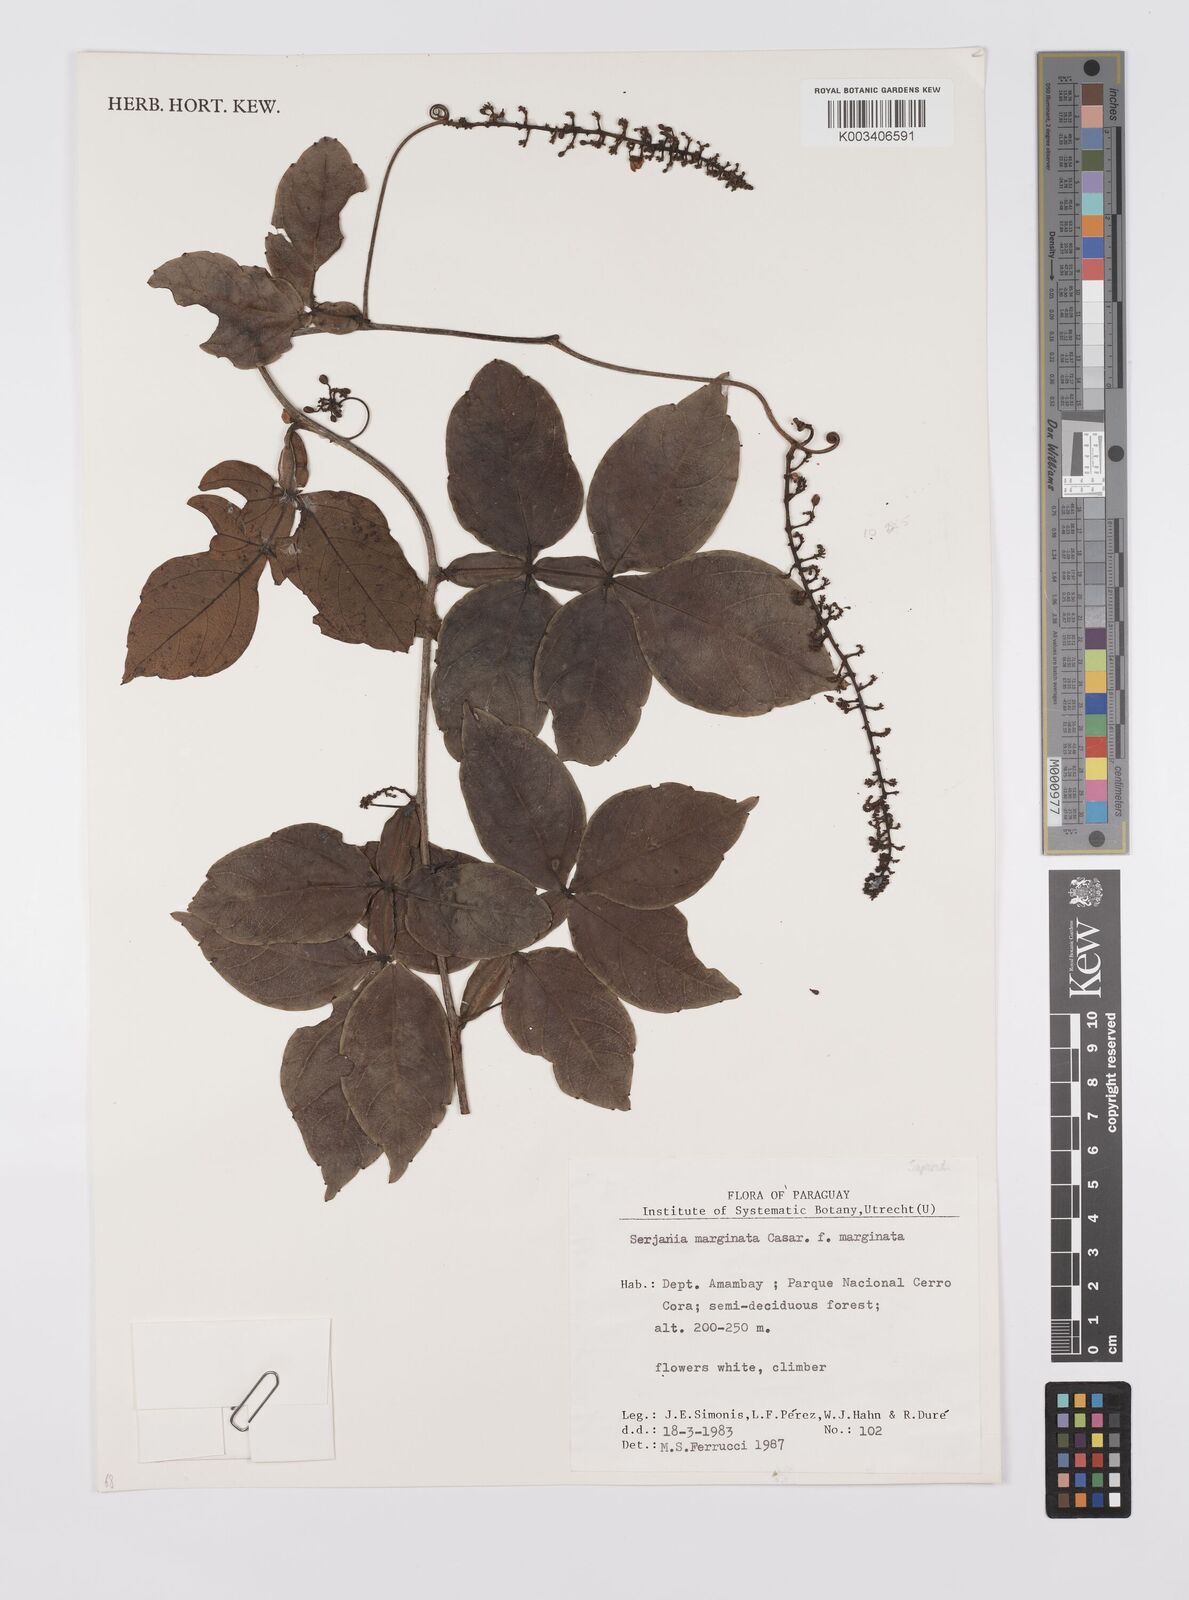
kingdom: Plantae
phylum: Tracheophyta
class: Magnoliopsida
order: Sapindales
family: Sapindaceae
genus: Serjania
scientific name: Serjania marginata
